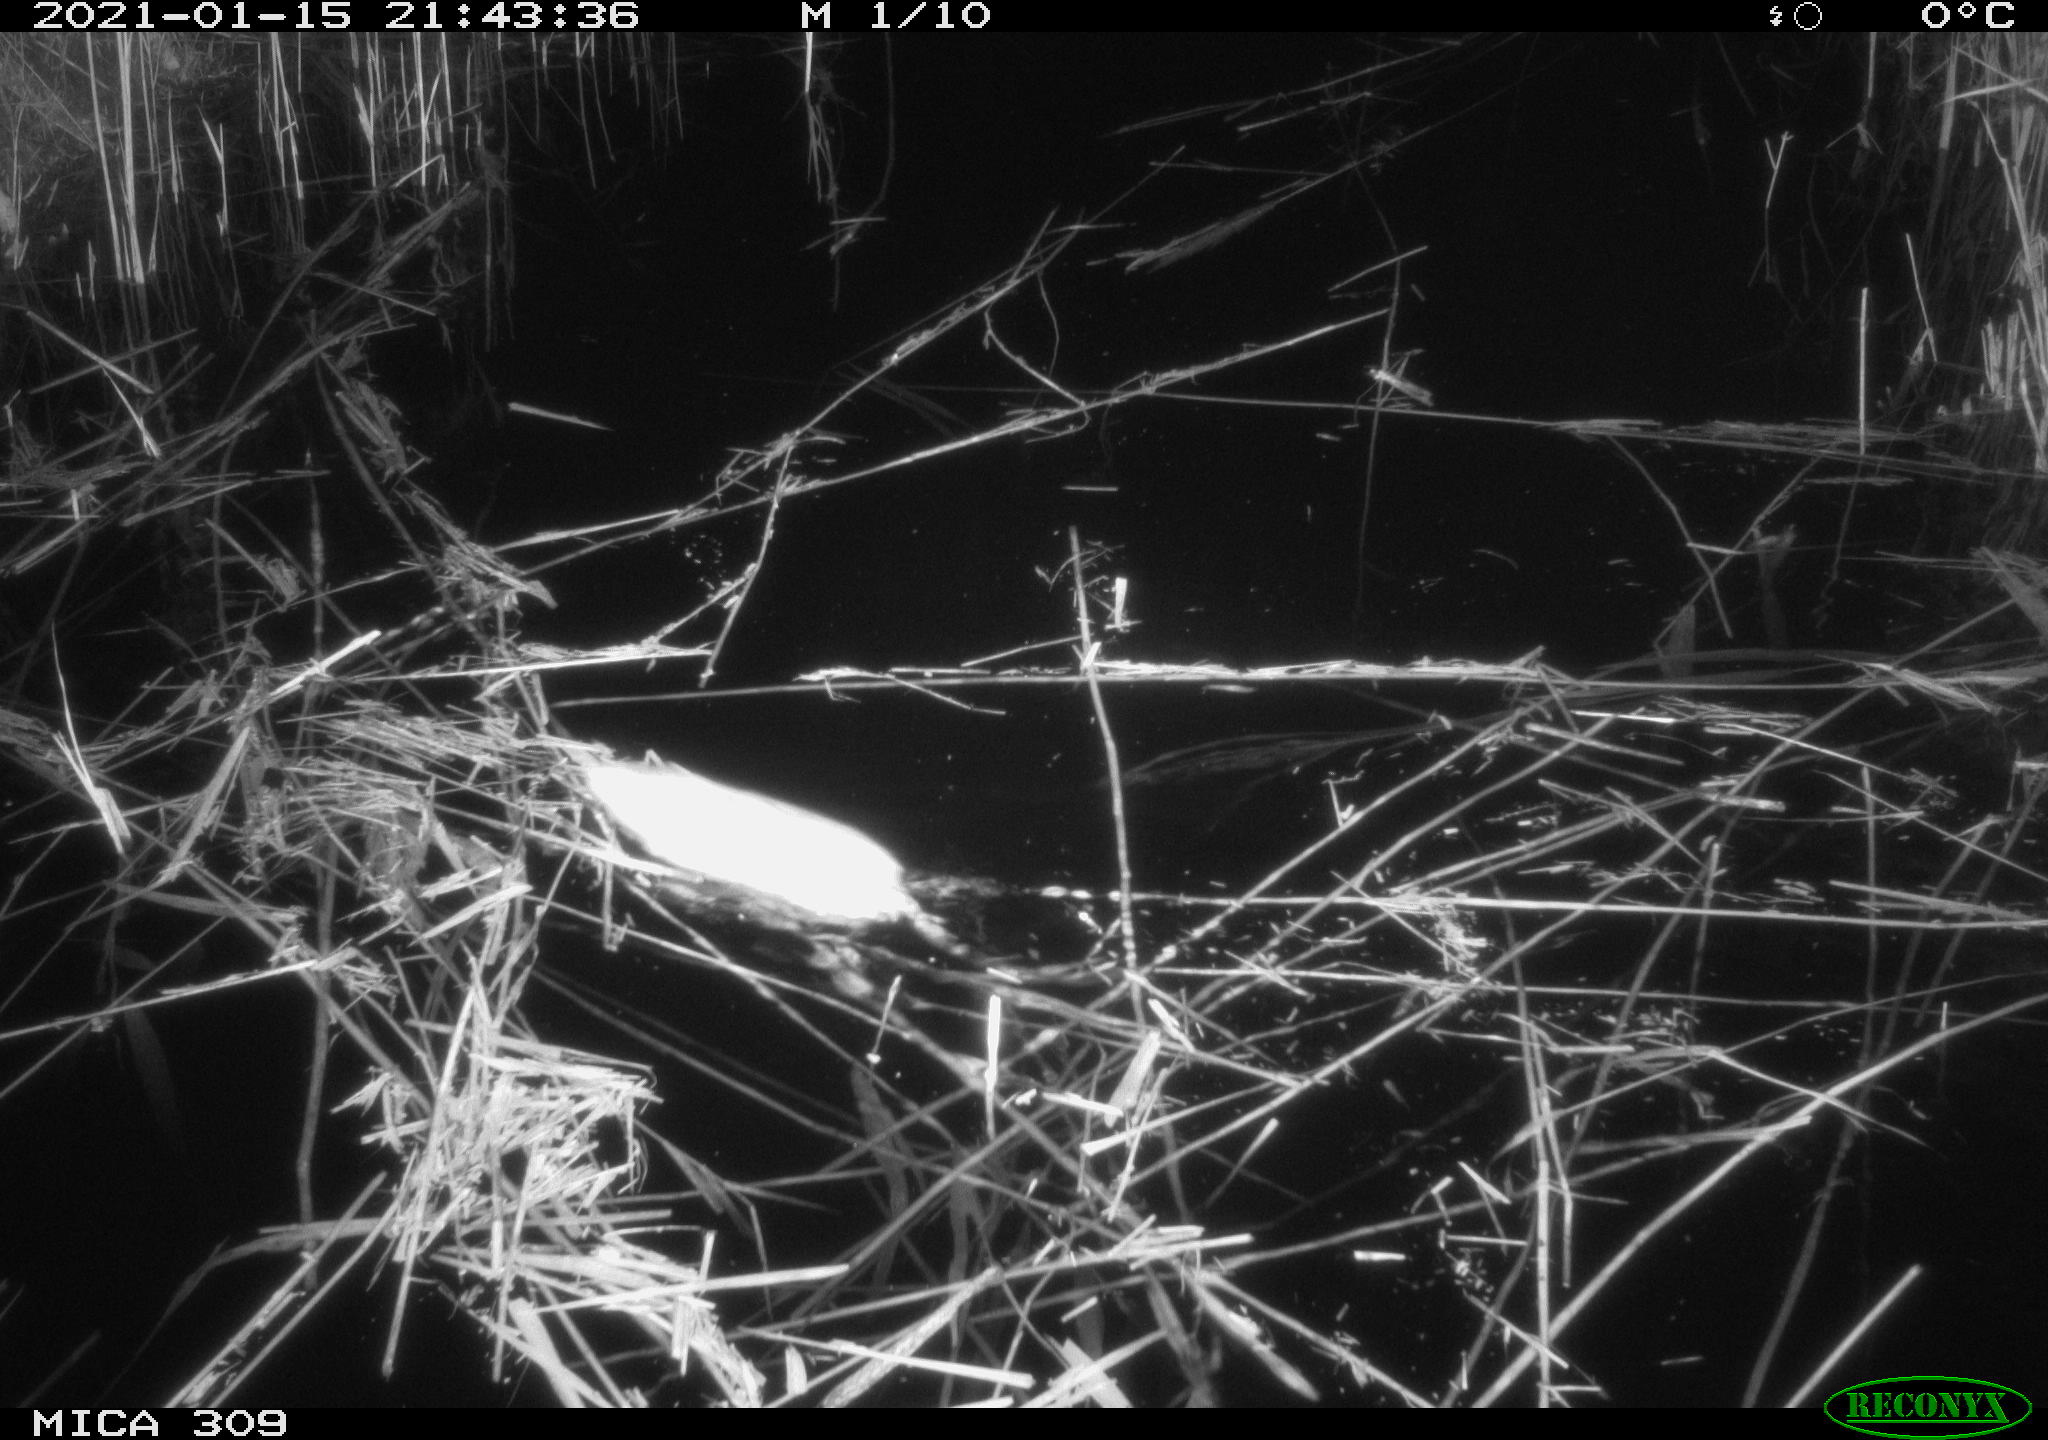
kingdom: Animalia
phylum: Chordata
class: Mammalia
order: Rodentia
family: Muridae
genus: Rattus
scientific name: Rattus norvegicus
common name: Brown rat
